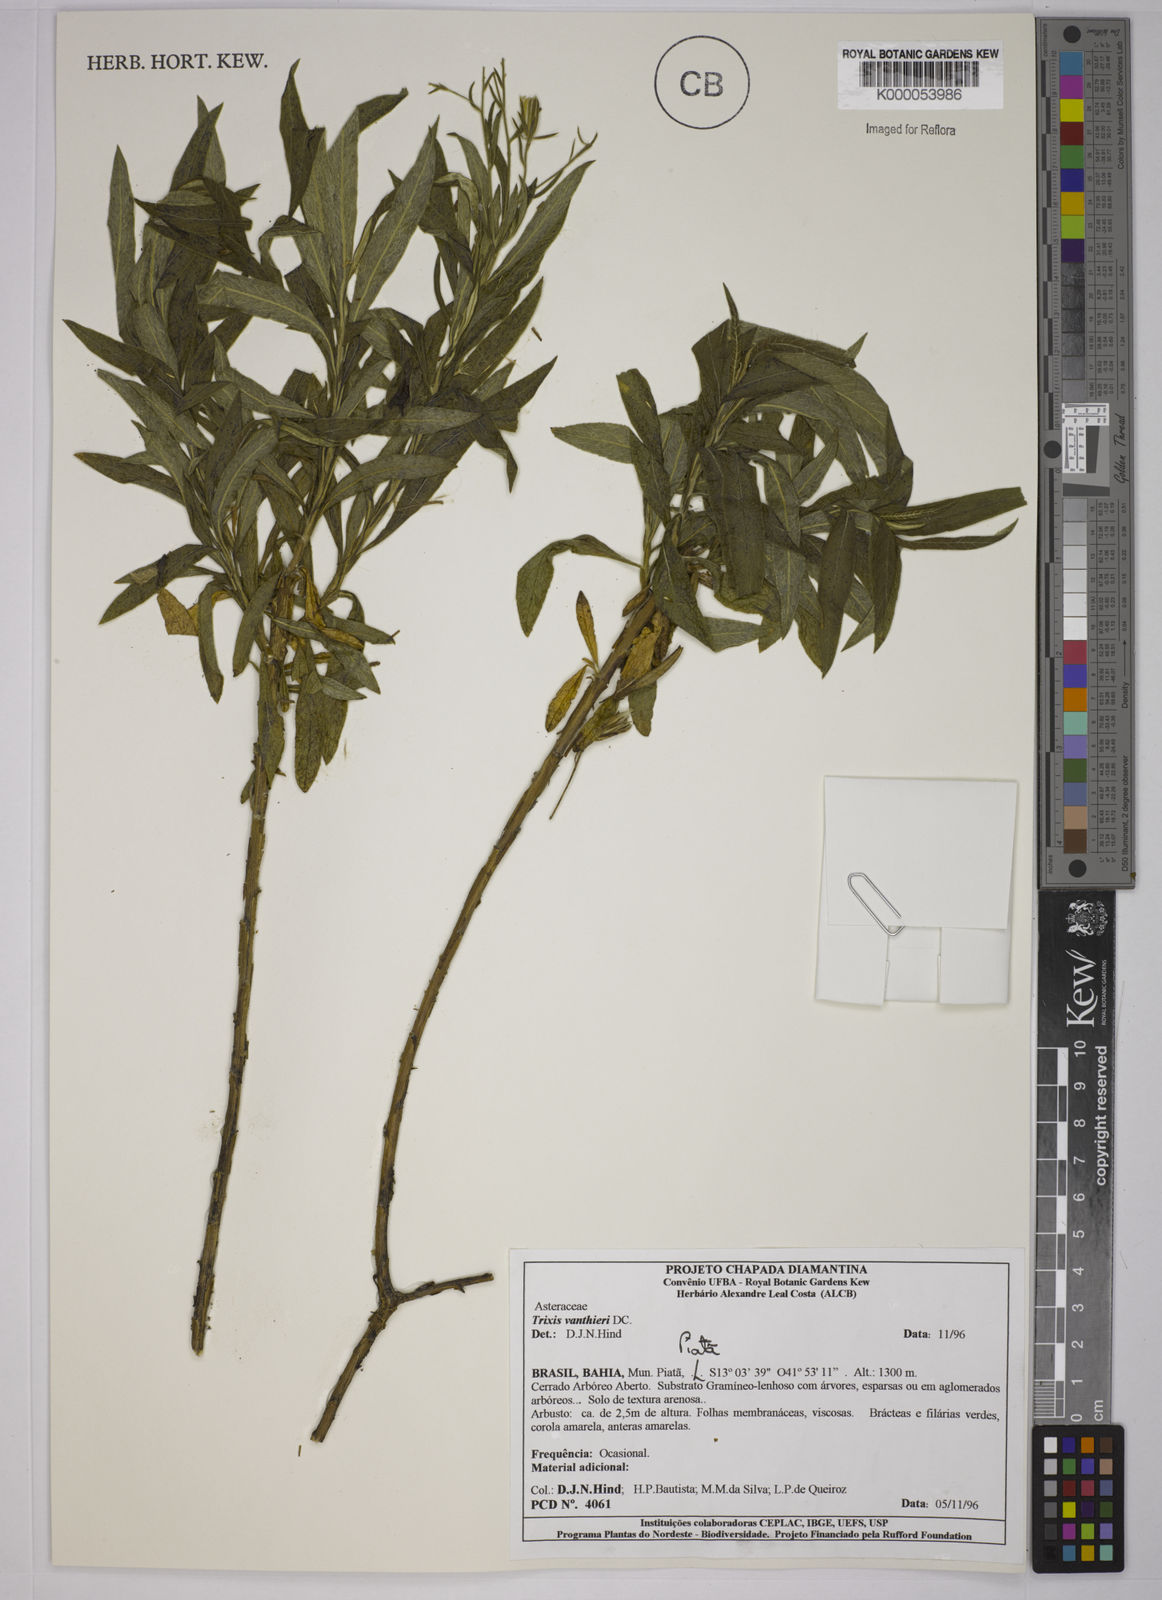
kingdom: Plantae
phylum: Tracheophyta
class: Magnoliopsida
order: Asterales
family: Asteraceae
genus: Trixis
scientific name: Trixis vauthieri
